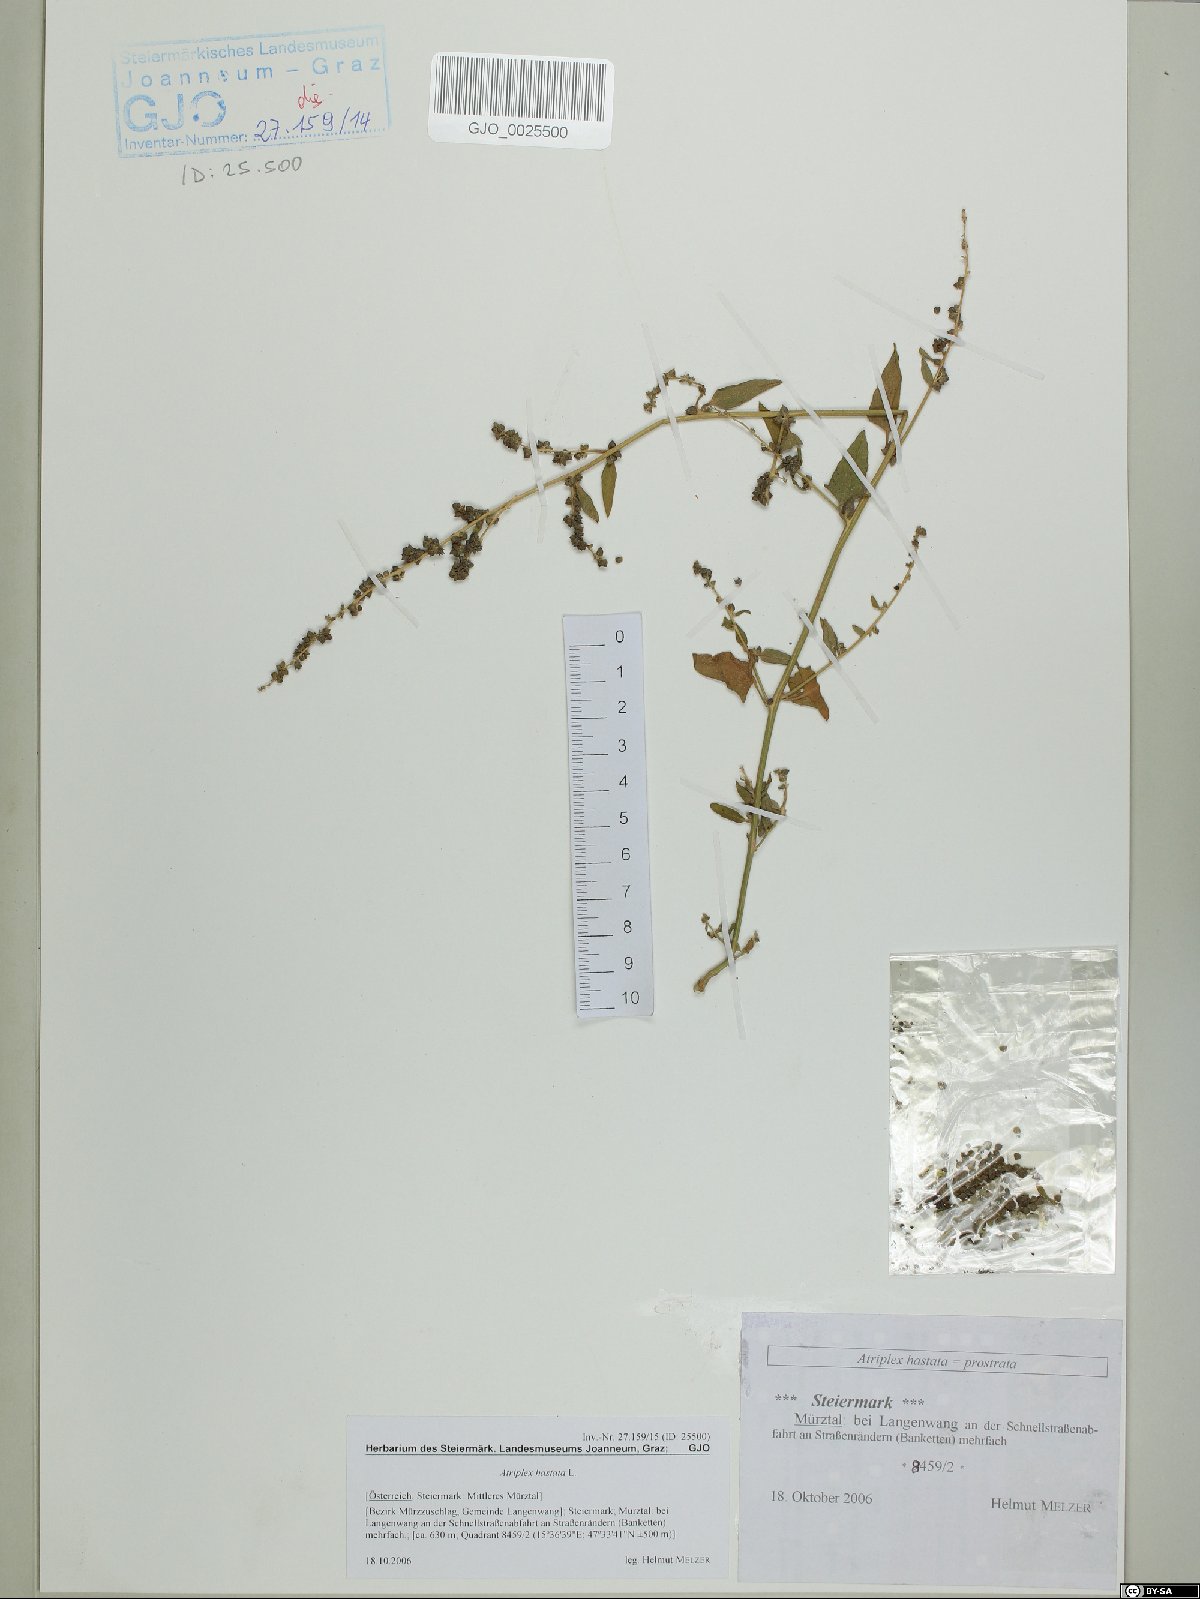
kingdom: Plantae
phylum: Tracheophyta
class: Magnoliopsida
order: Caryophyllales
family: Amaranthaceae
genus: Atriplex
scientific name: Atriplex calotheca
